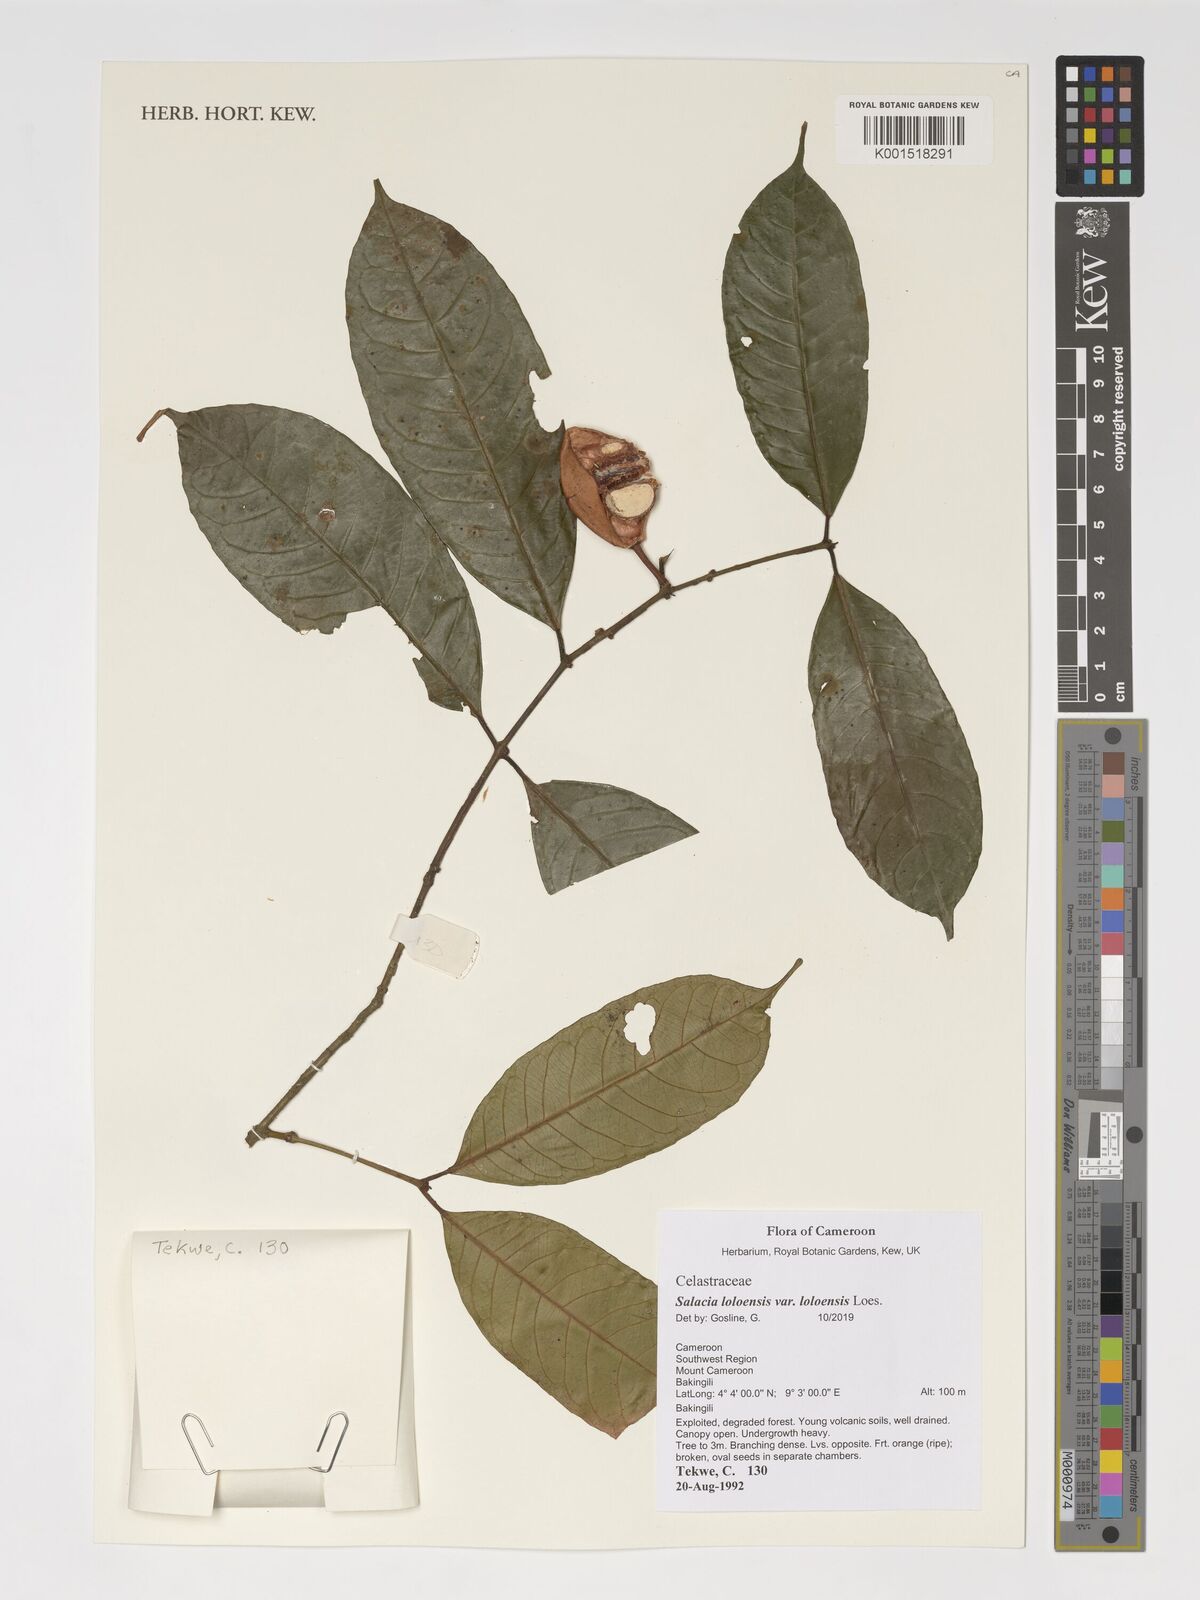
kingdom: Plantae
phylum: Tracheophyta
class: Magnoliopsida
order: Celastrales
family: Celastraceae
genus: Salacia
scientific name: Salacia loloensis
